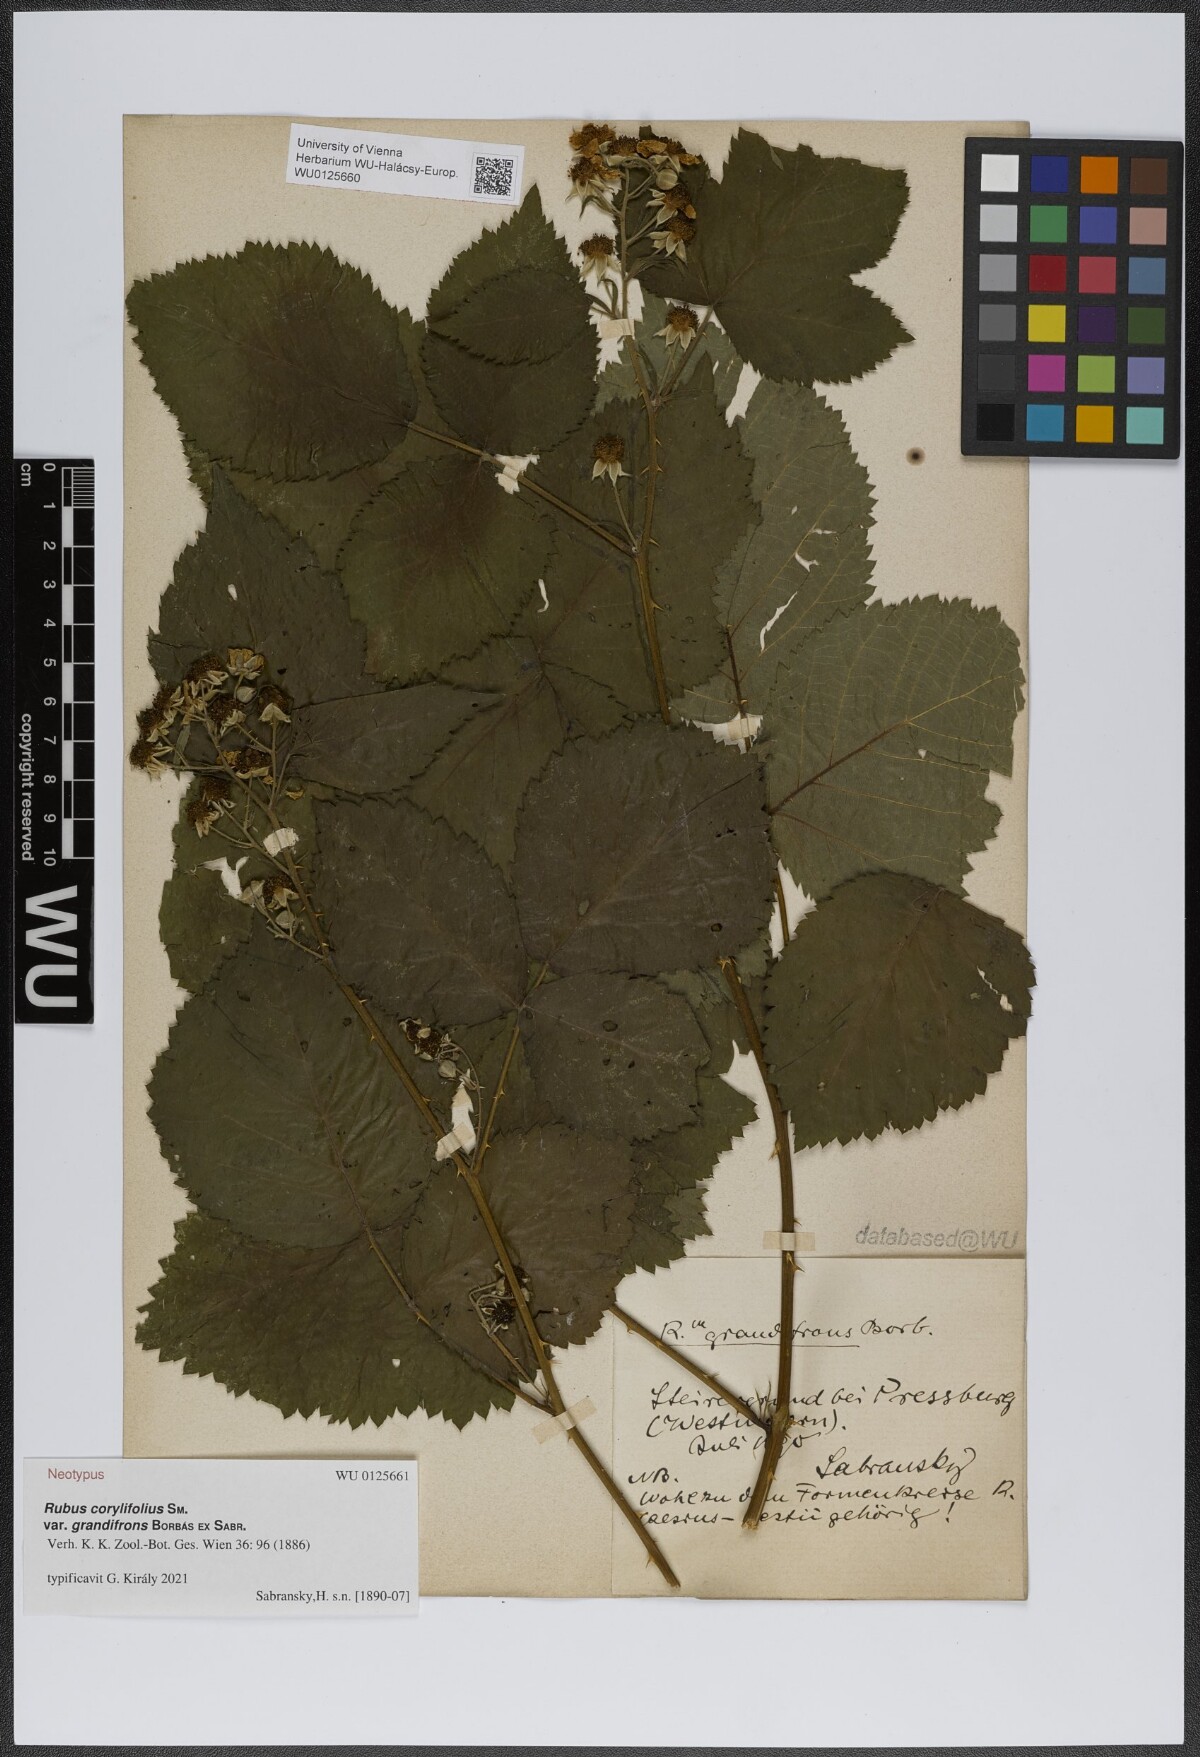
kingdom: Plantae
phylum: Tracheophyta
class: Magnoliopsida
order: Rosales
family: Rosaceae
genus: Rubus
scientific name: Rubus grandifrons
